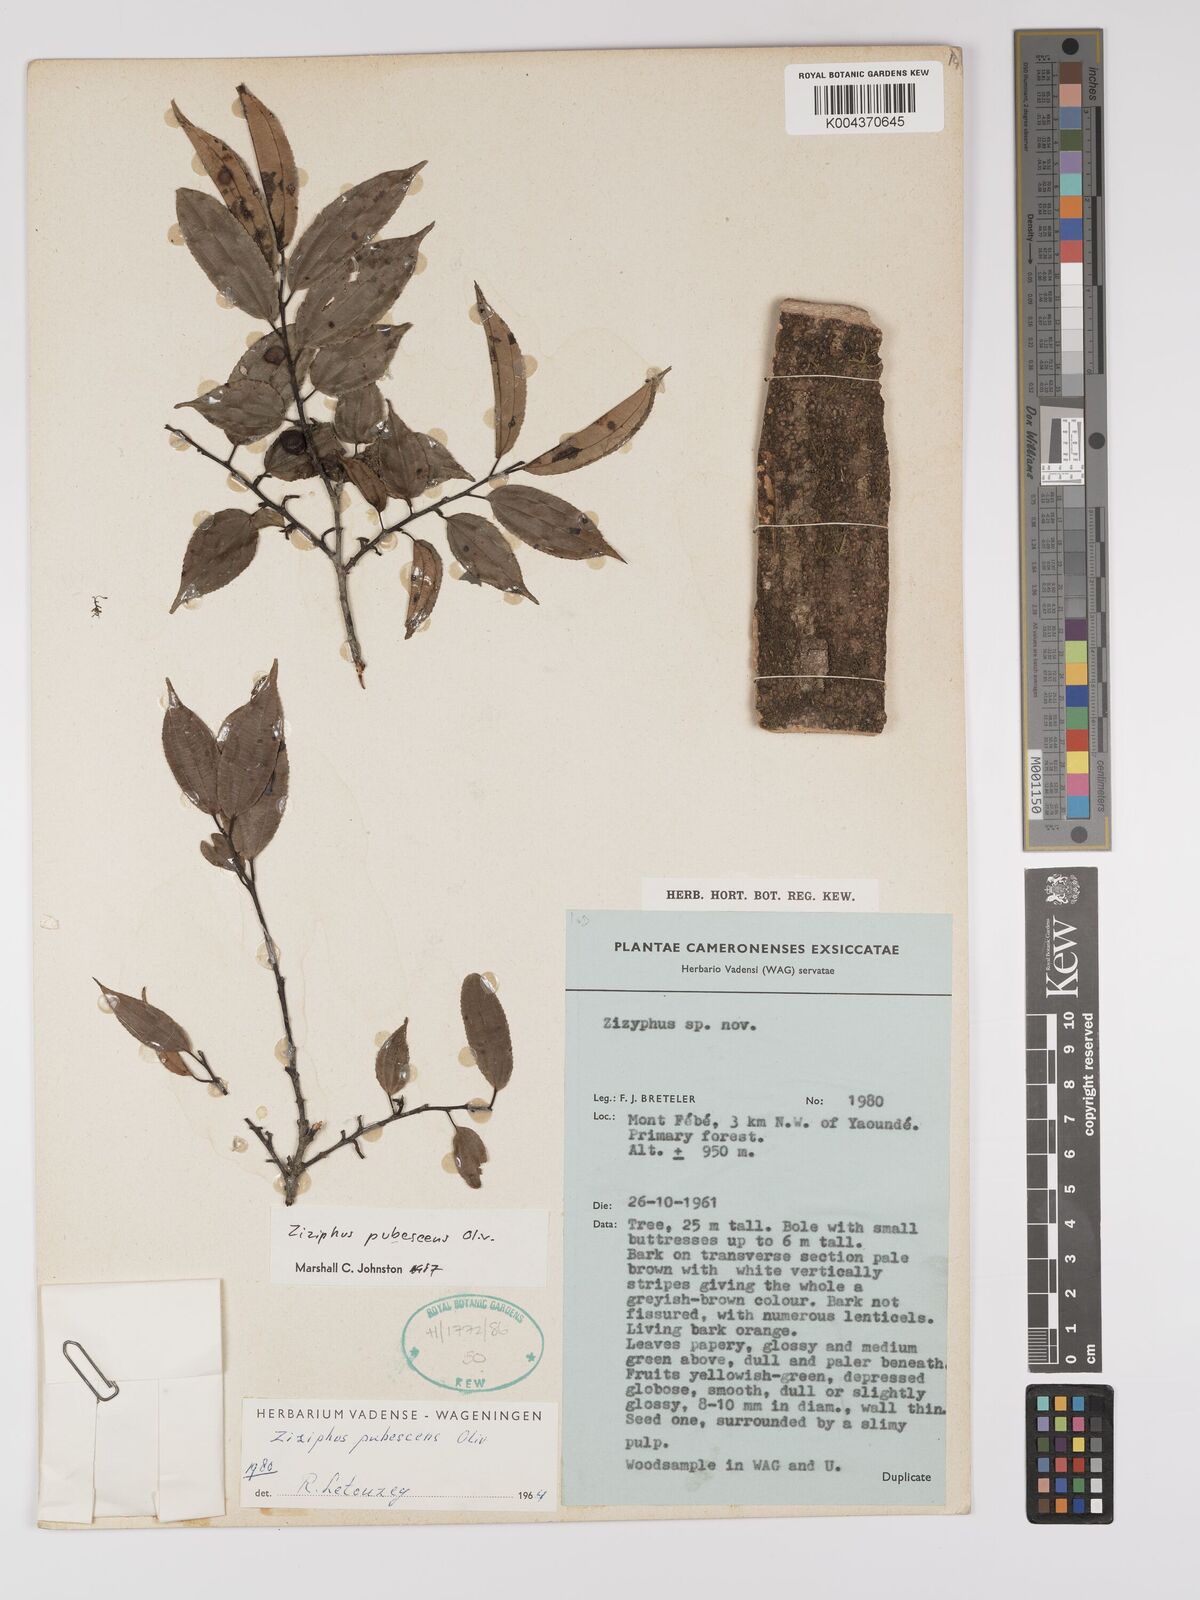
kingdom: Plantae
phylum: Tracheophyta
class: Magnoliopsida
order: Rosales
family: Rhamnaceae
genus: Ziziphus
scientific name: Ziziphus pubescens
